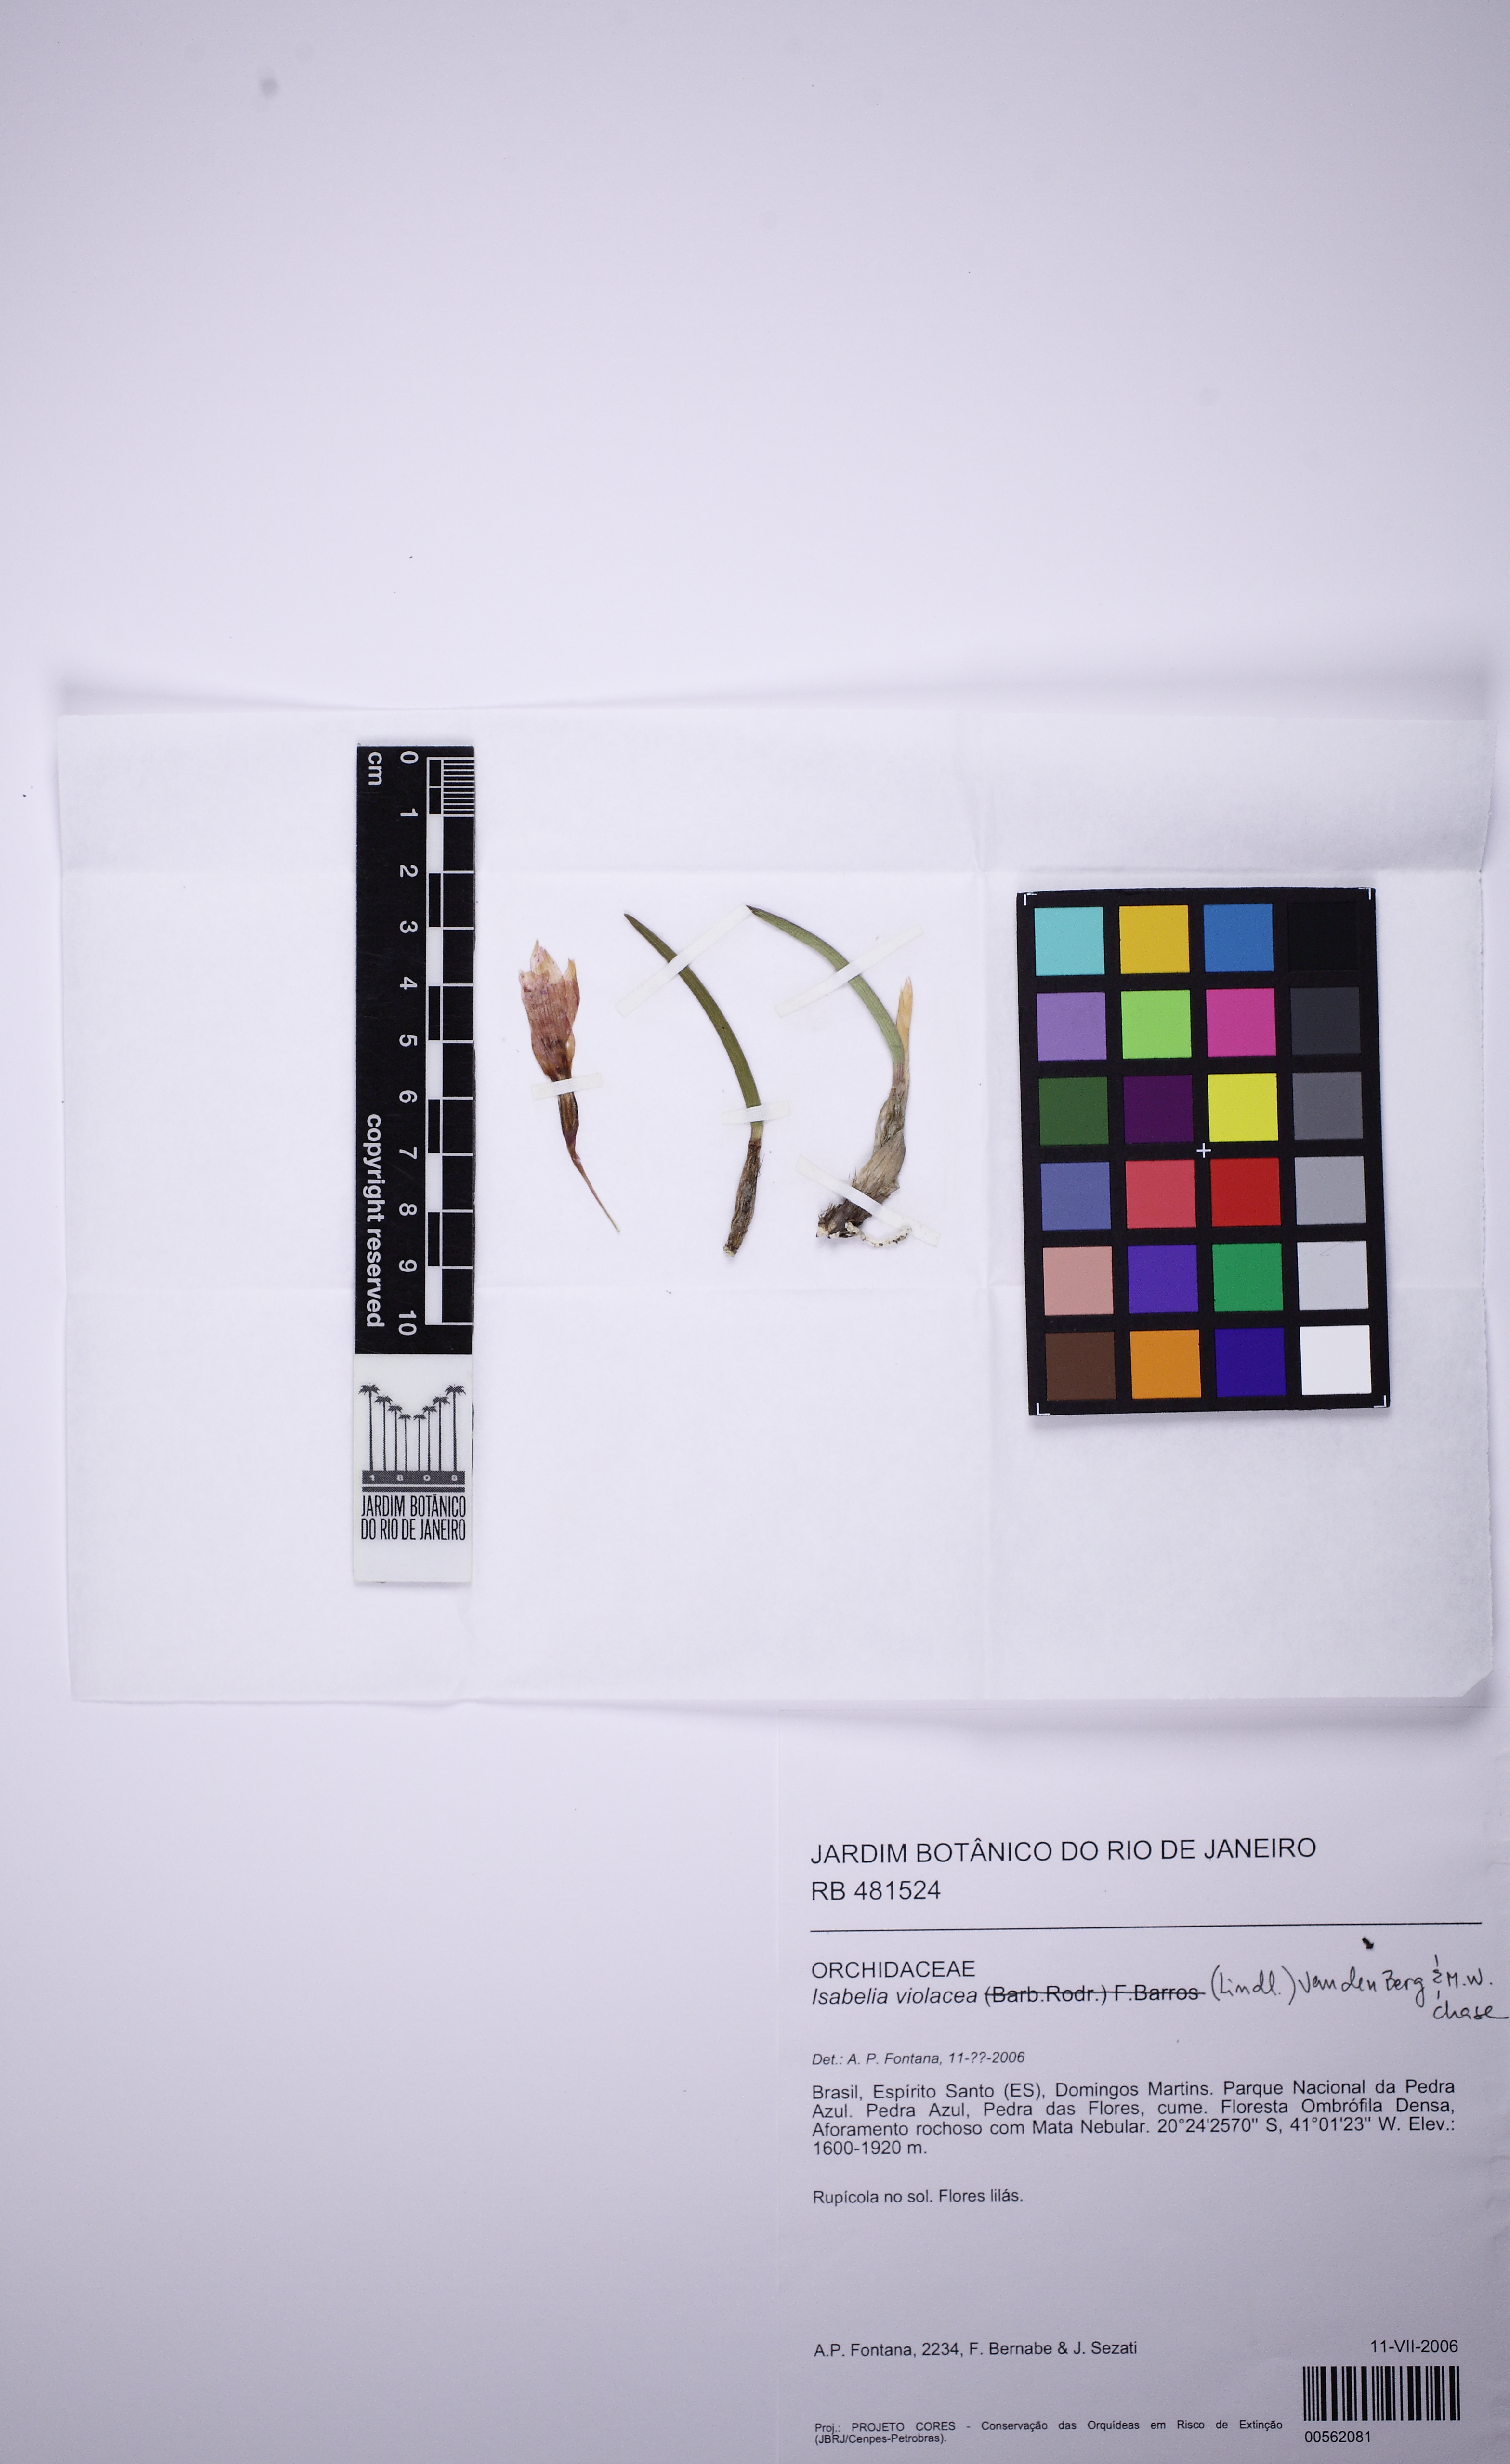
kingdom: Plantae
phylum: Tracheophyta
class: Liliopsida
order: Asparagales
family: Orchidaceae
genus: Isabelia
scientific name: Isabelia violacea
